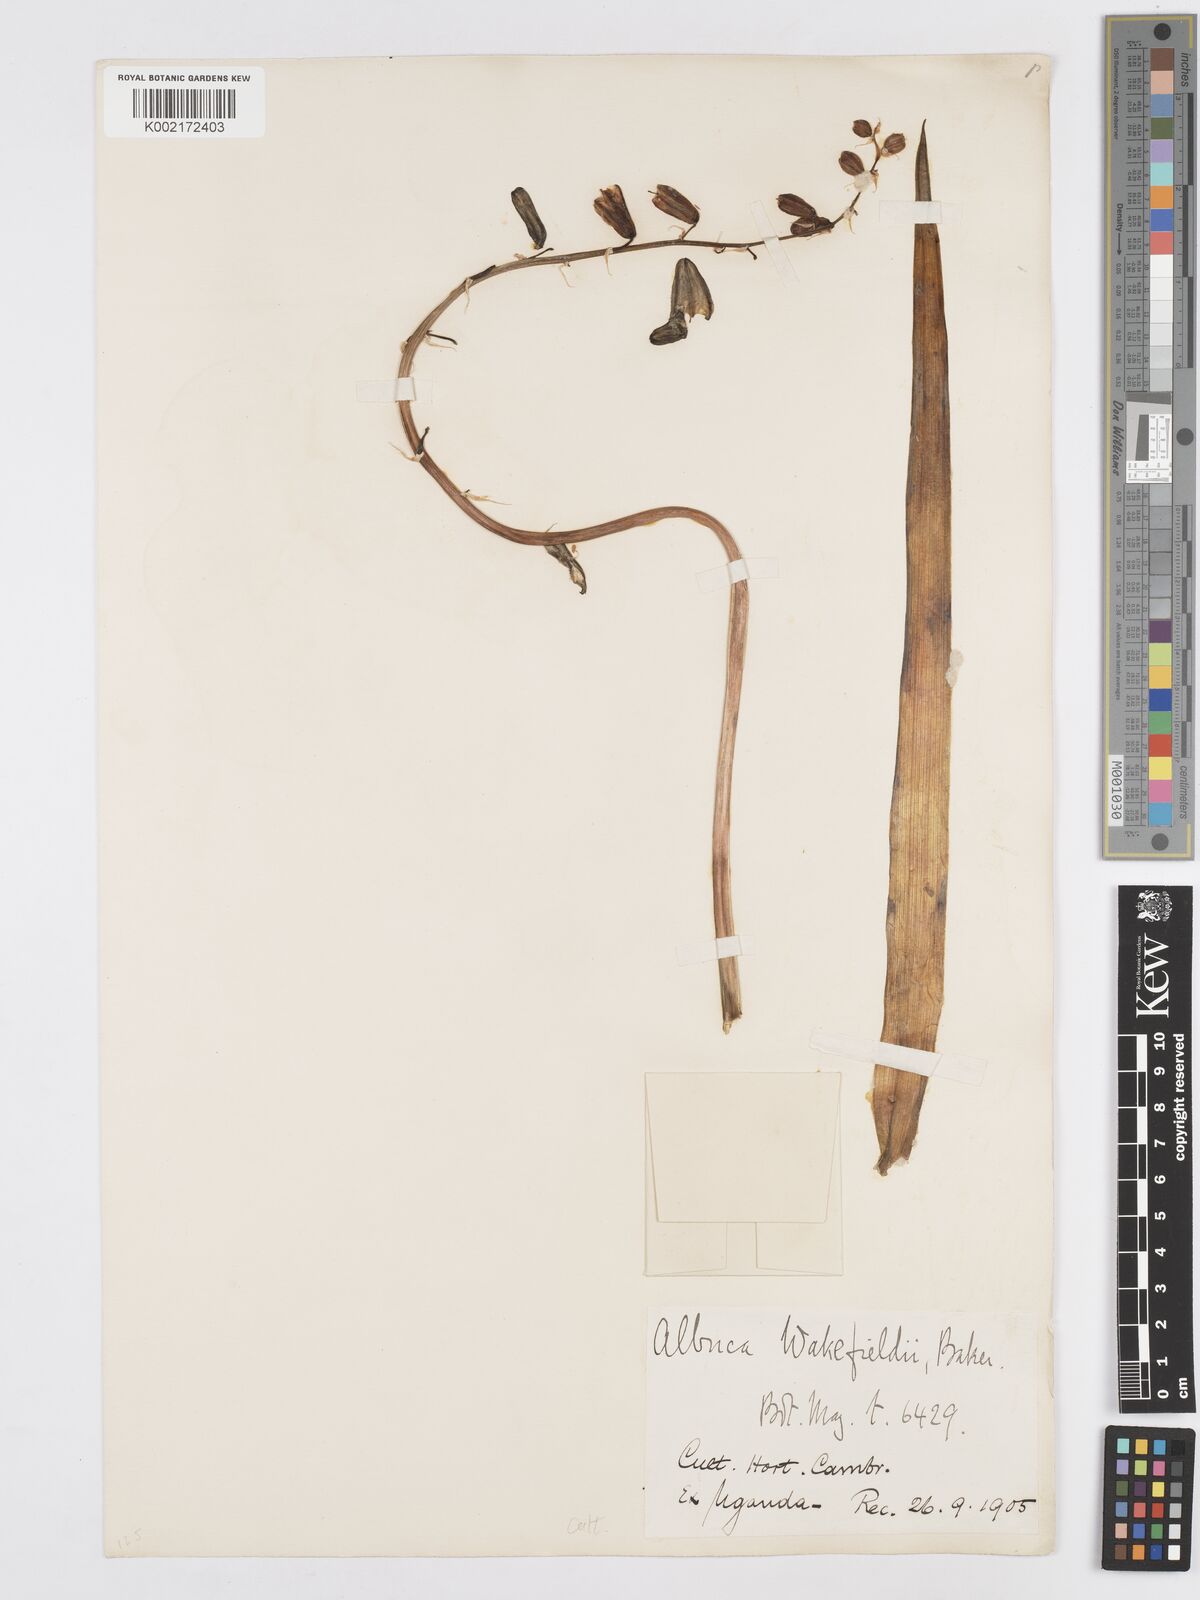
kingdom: Plantae
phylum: Tracheophyta
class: Liliopsida
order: Asparagales
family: Asparagaceae
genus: Albuca
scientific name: Albuca abyssinica
